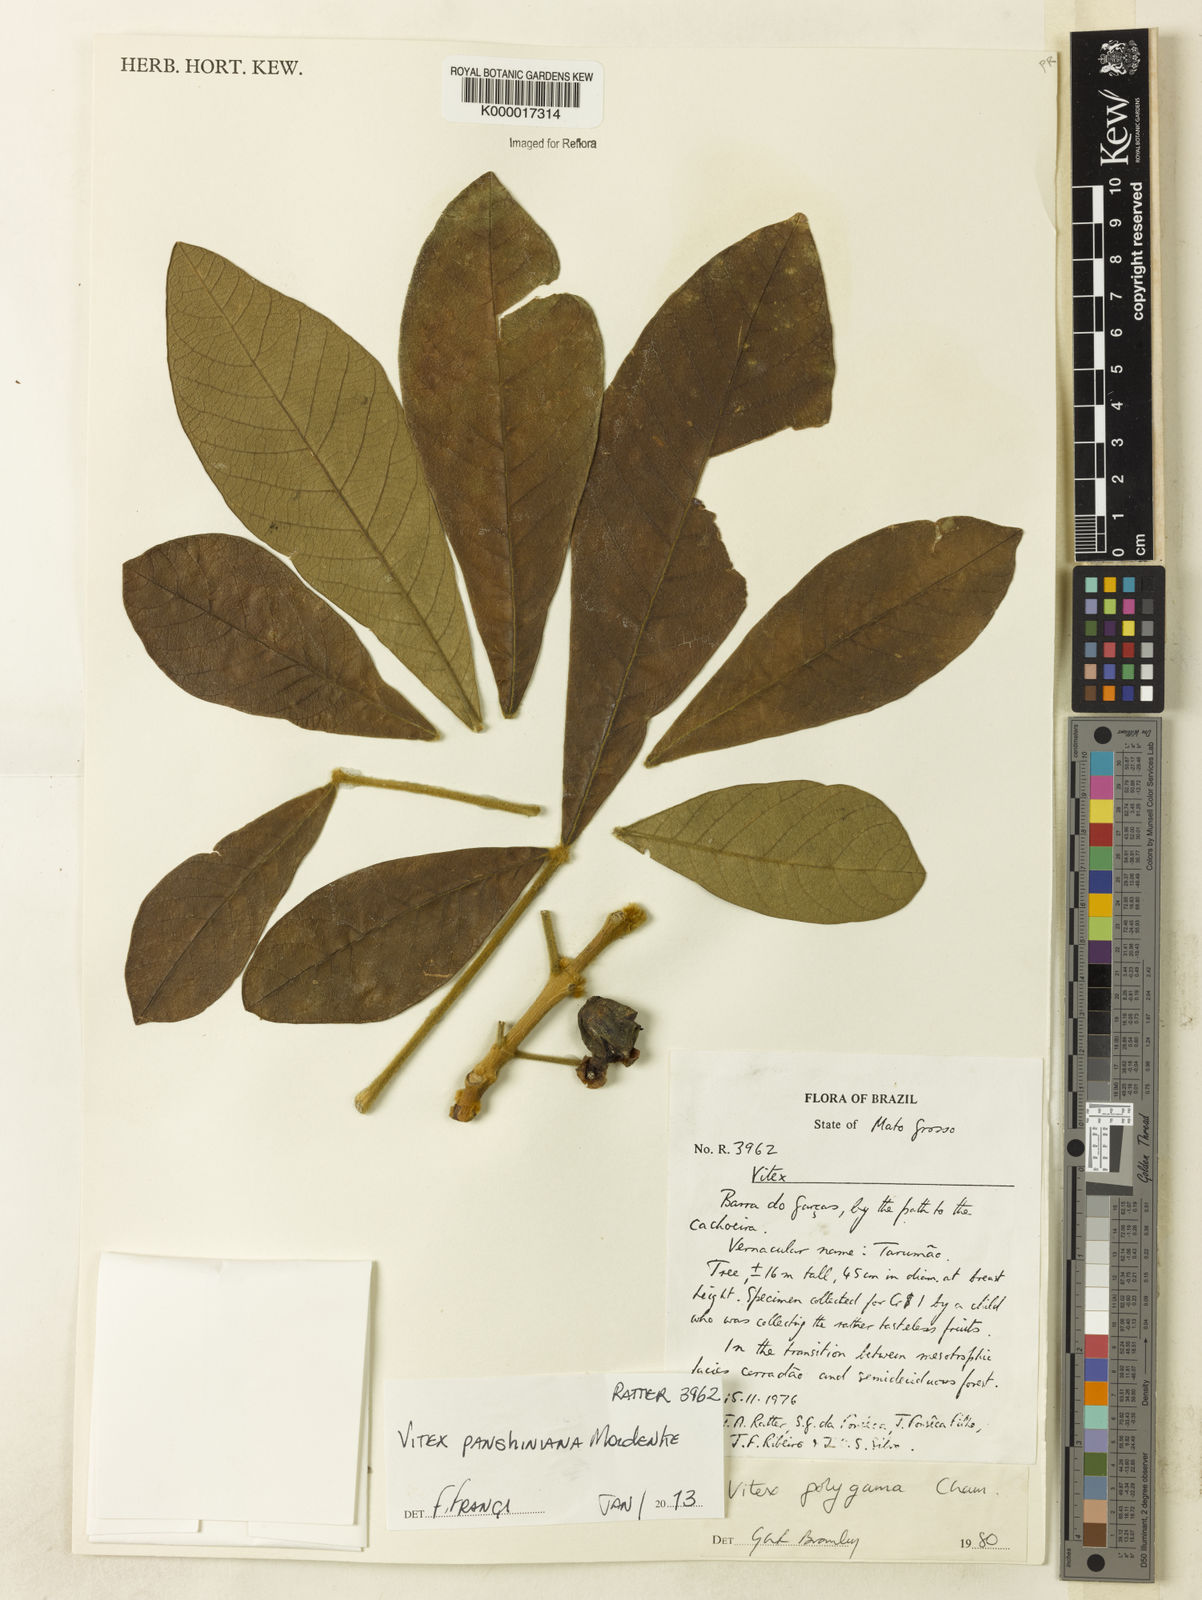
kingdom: Plantae
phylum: Tracheophyta
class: Magnoliopsida
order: Lamiales
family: Lamiaceae
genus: Vitex
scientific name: Vitex panshiniana
